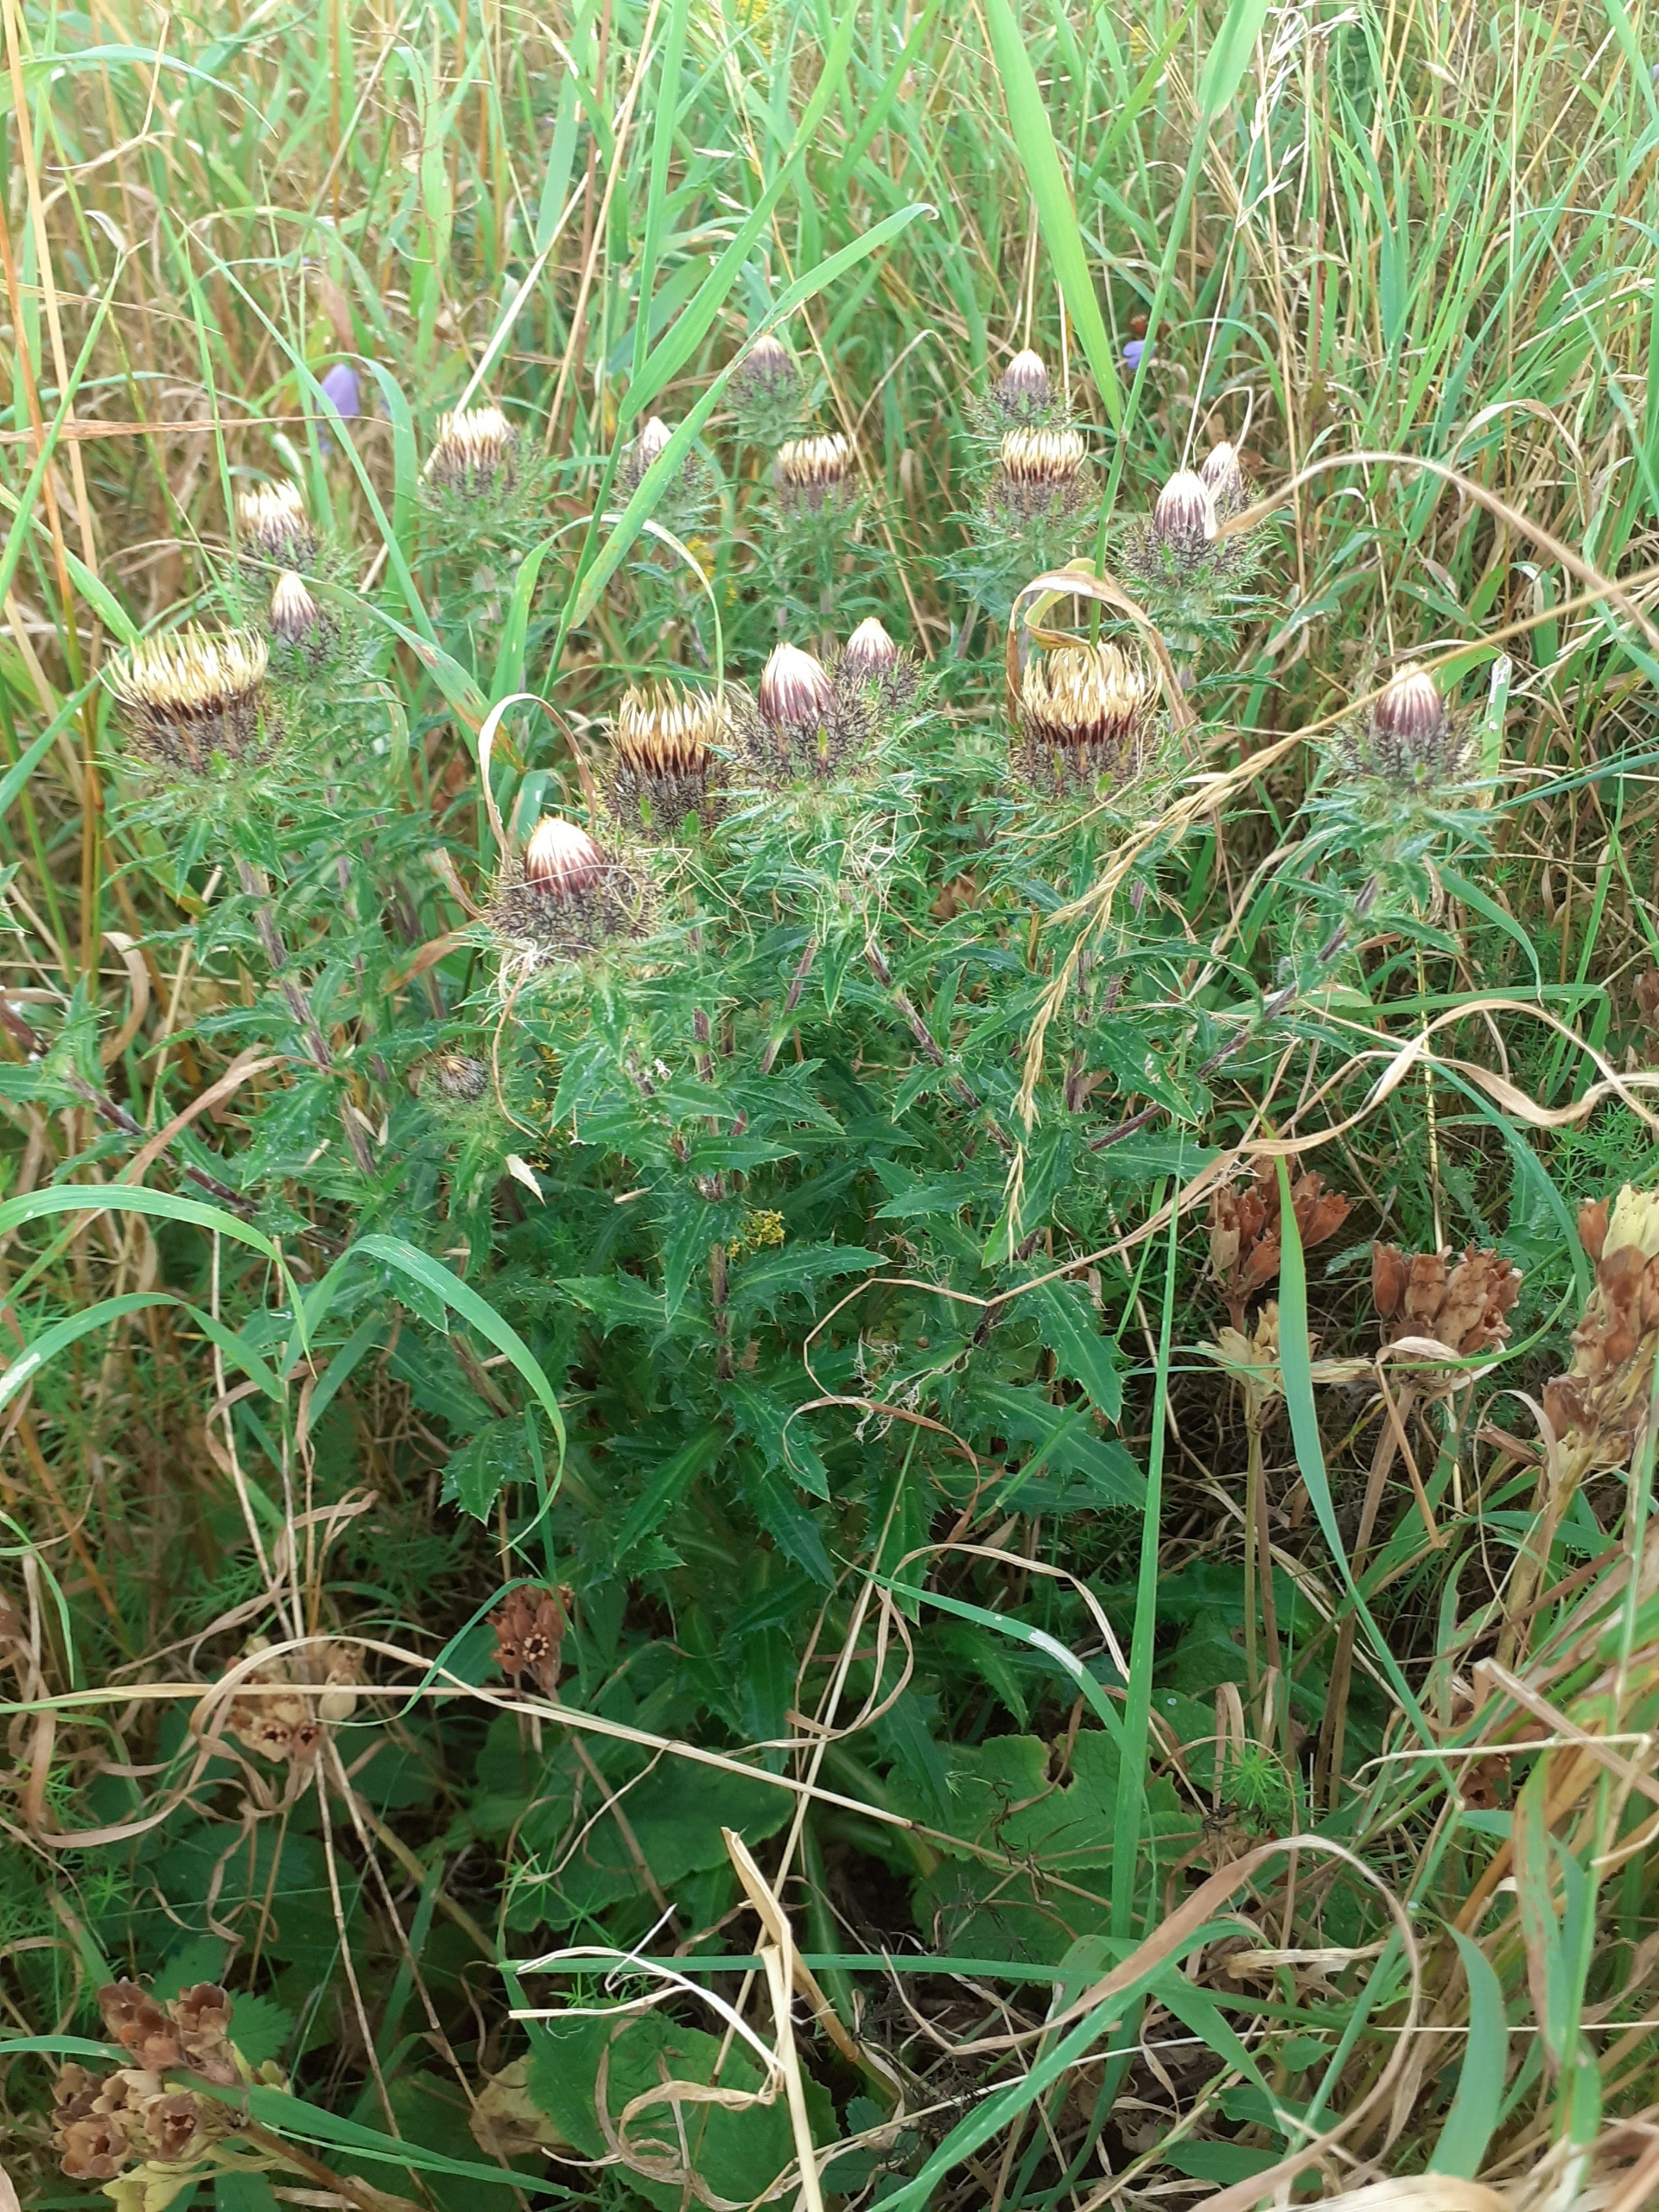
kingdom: Plantae
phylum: Tracheophyta
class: Magnoliopsida
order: Asterales
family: Asteraceae
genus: Carlina
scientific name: Carlina vulgaris
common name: Bakketidsel
